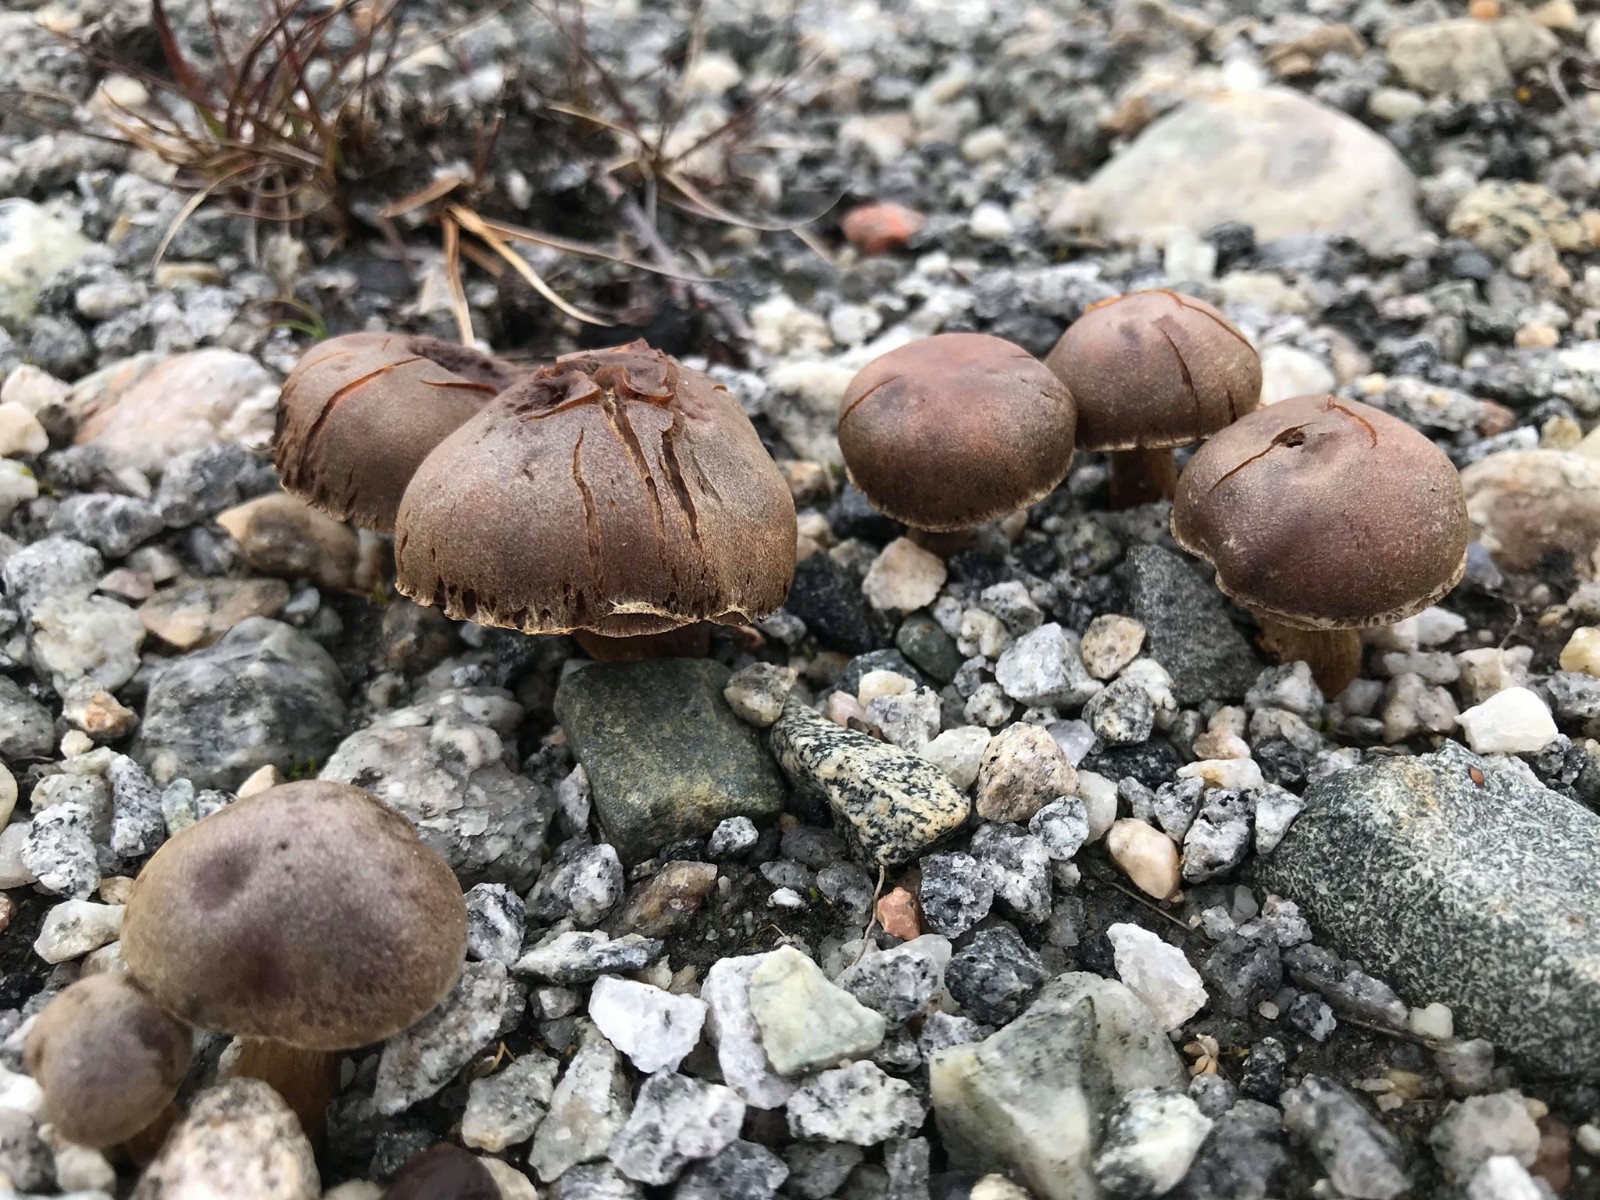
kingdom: Fungi
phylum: Basidiomycota
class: Agaricomycetes
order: Agaricales
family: Cortinariaceae
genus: Cortinarius
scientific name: Cortinarius
